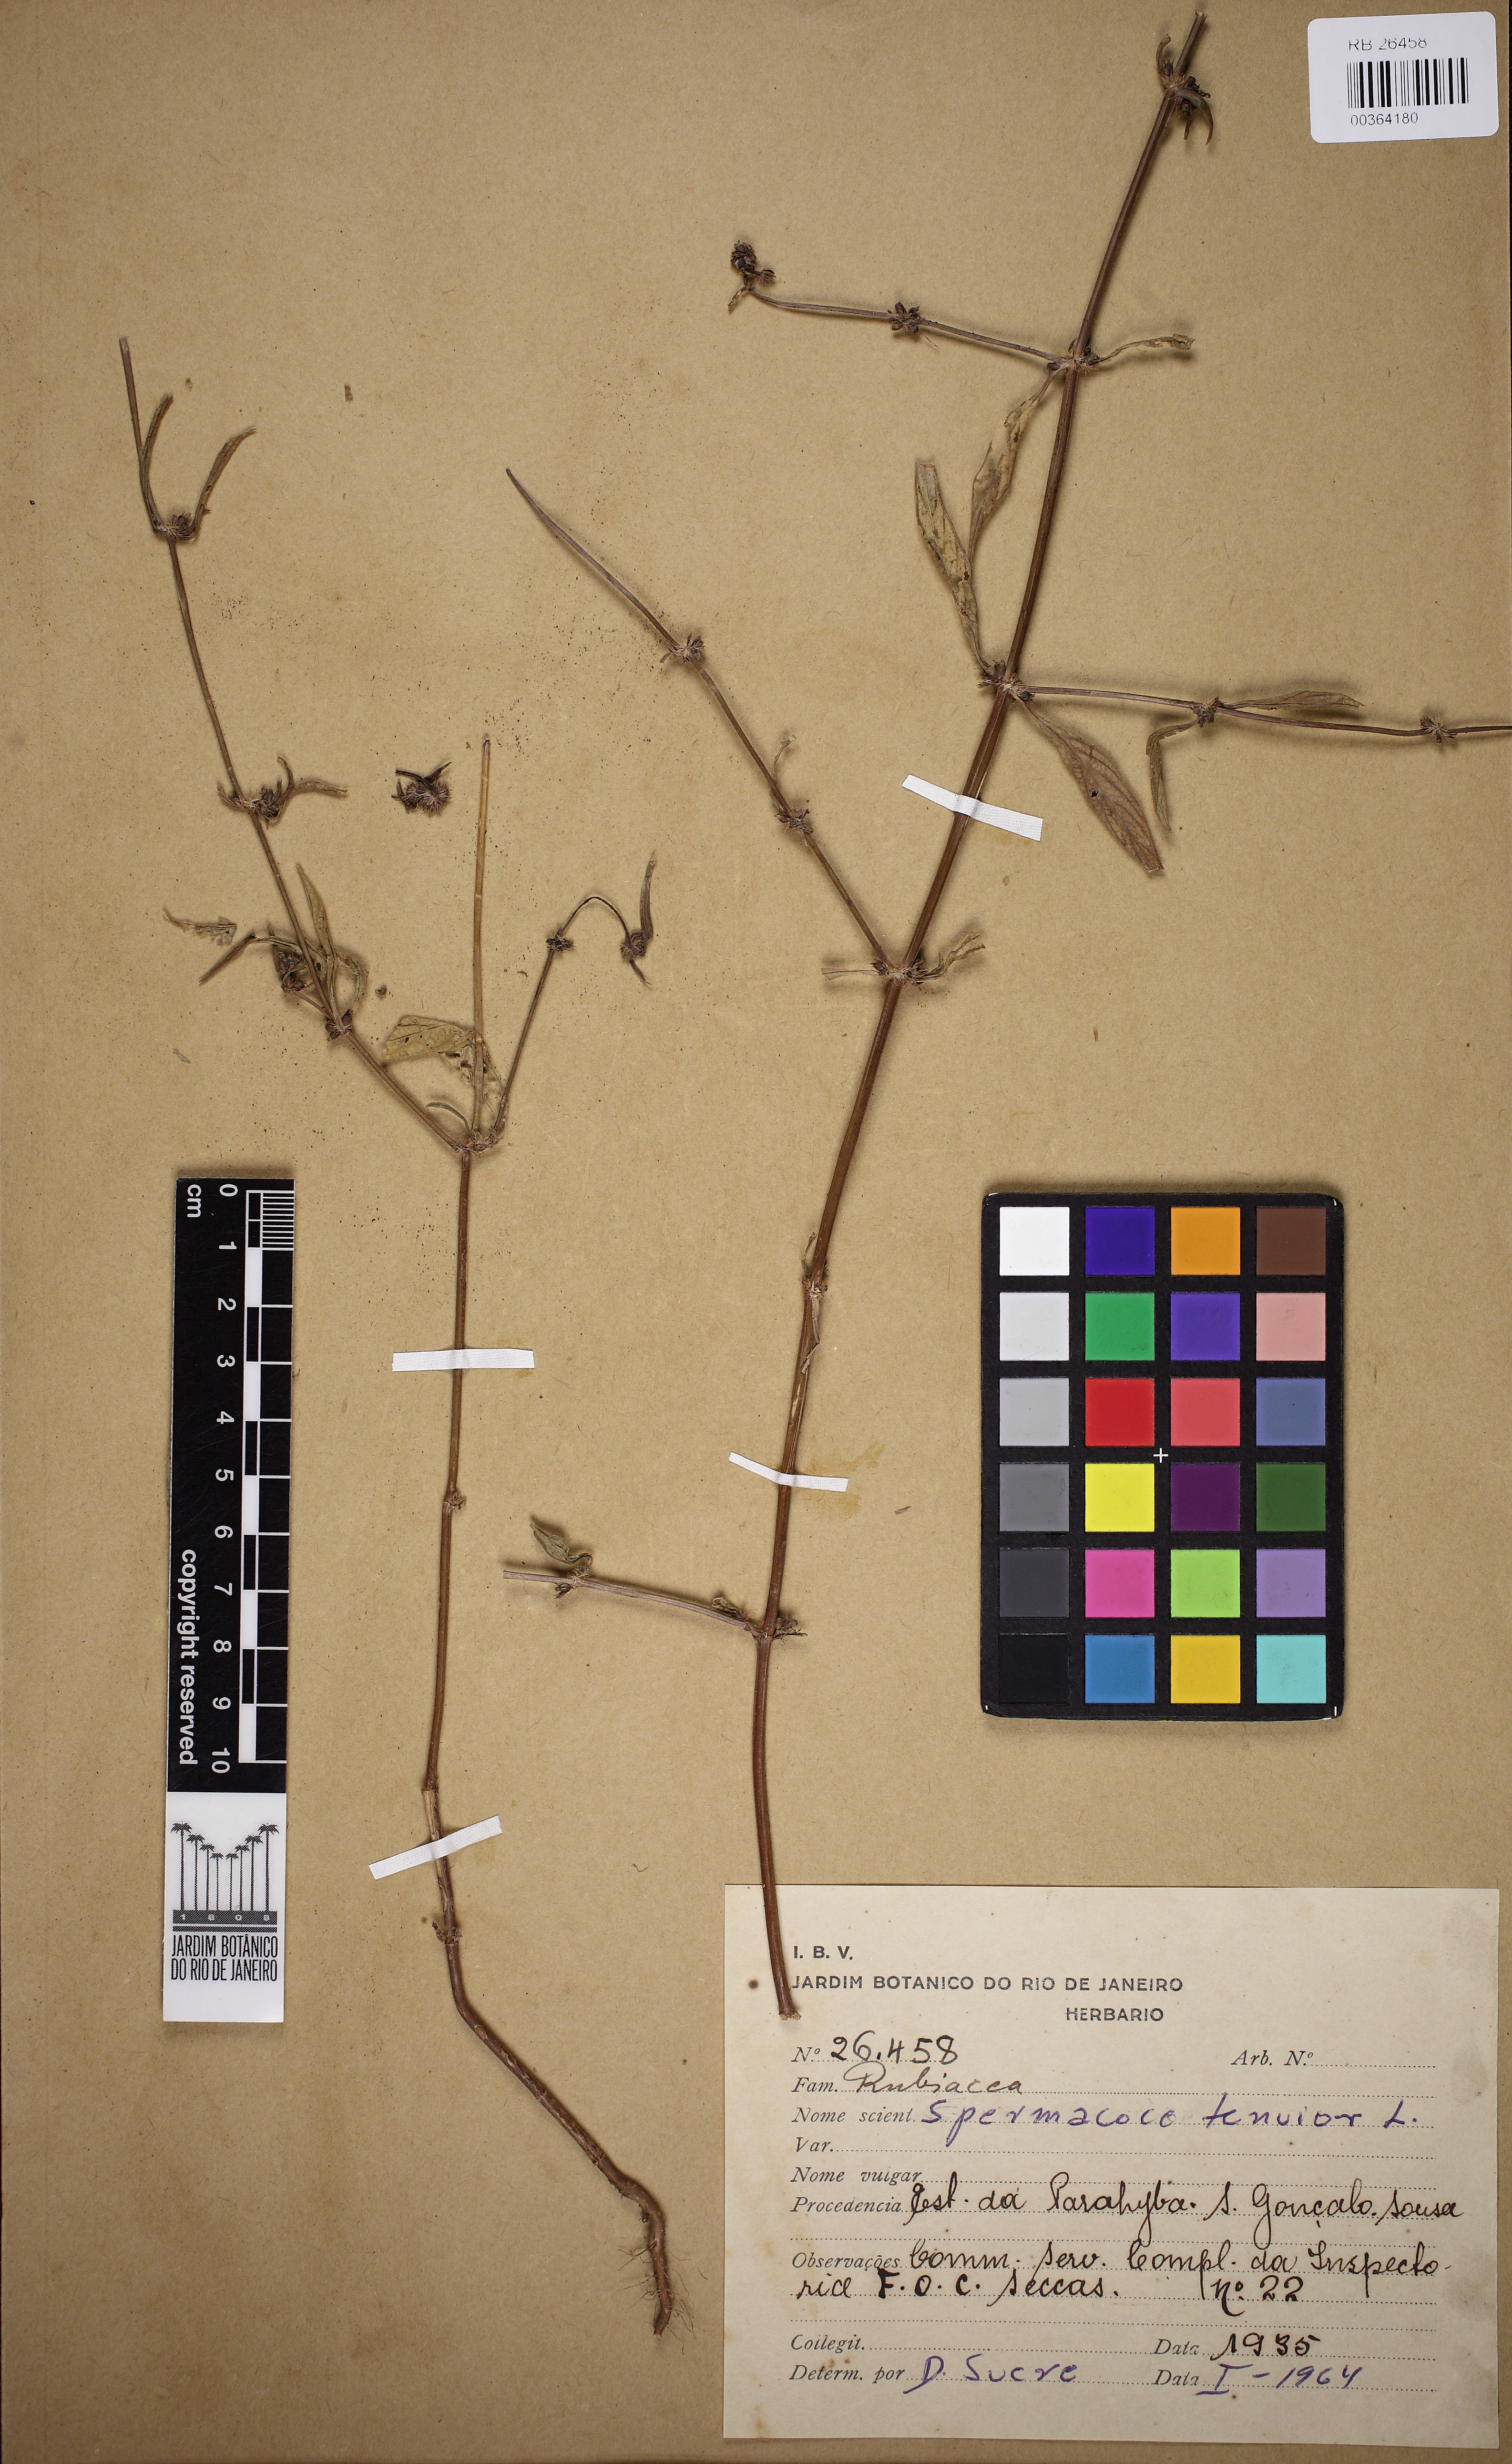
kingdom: Plantae
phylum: Tracheophyta
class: Magnoliopsida
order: Gentianales
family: Rubiaceae
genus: Spermacoce
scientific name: Spermacoce tenuior
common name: River false buttonweed
